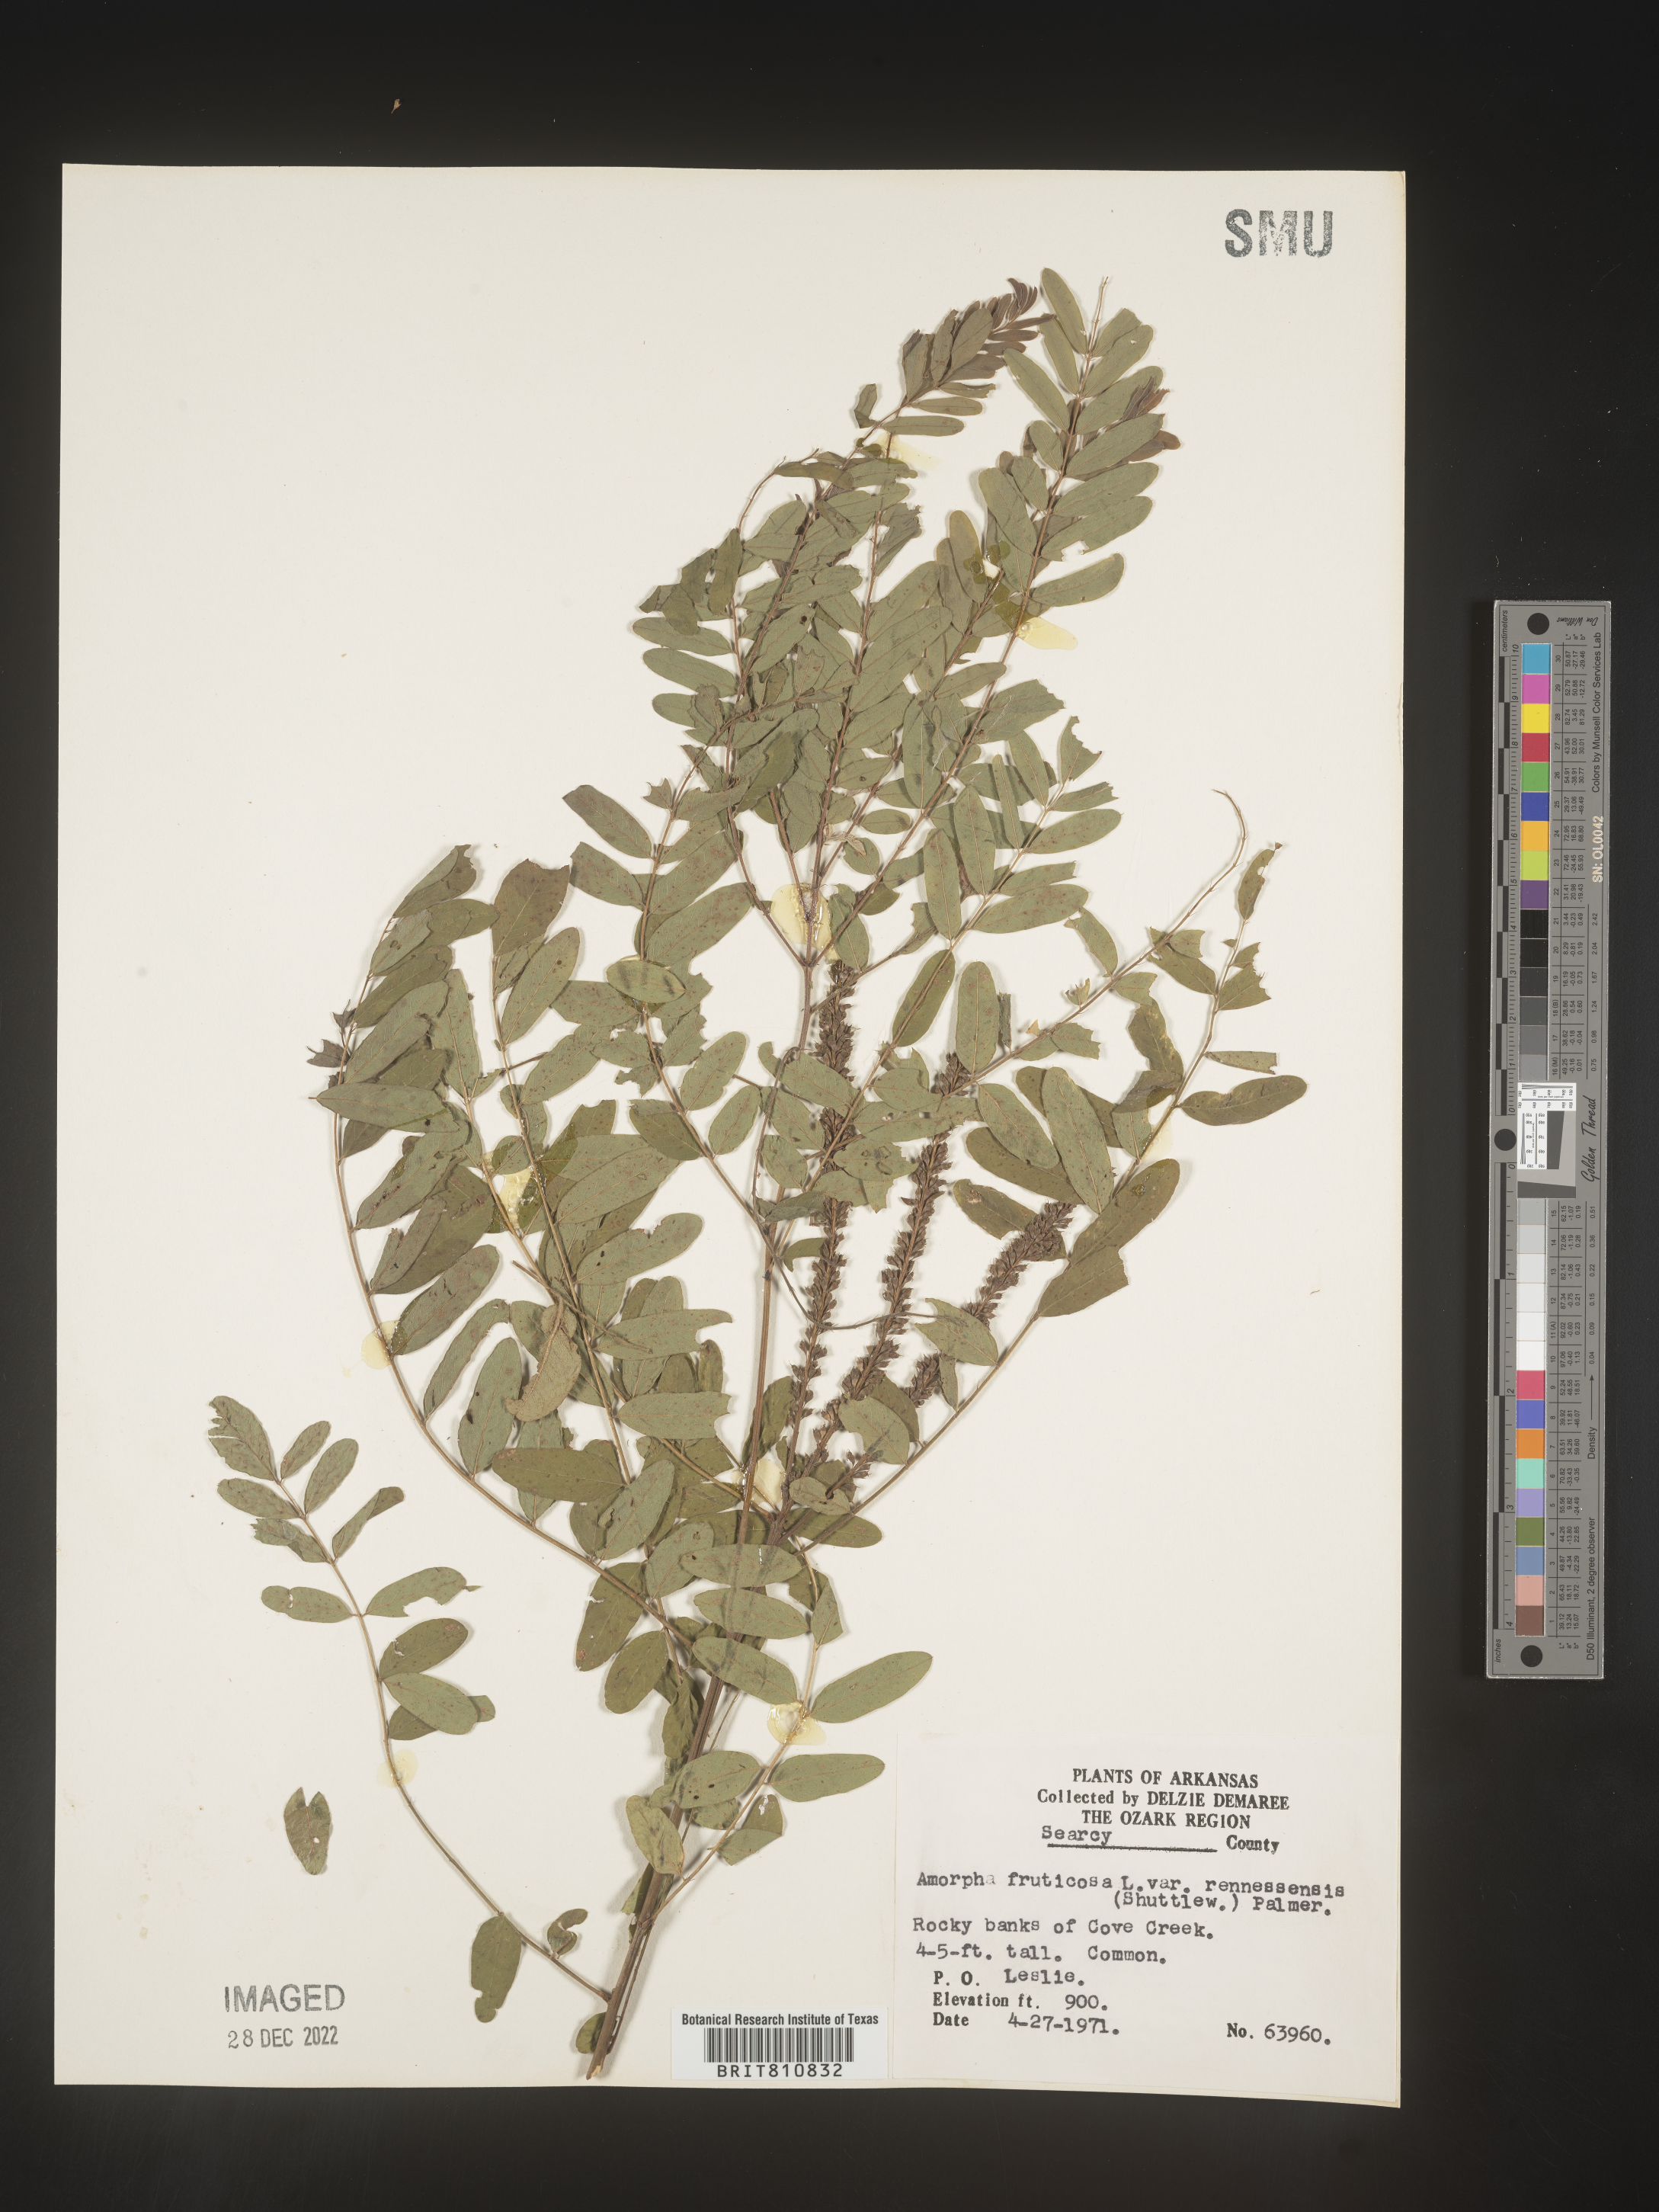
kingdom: Plantae
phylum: Tracheophyta
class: Magnoliopsida
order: Fabales
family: Fabaceae
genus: Amorpha
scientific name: Amorpha fruticosa
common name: False indigo
